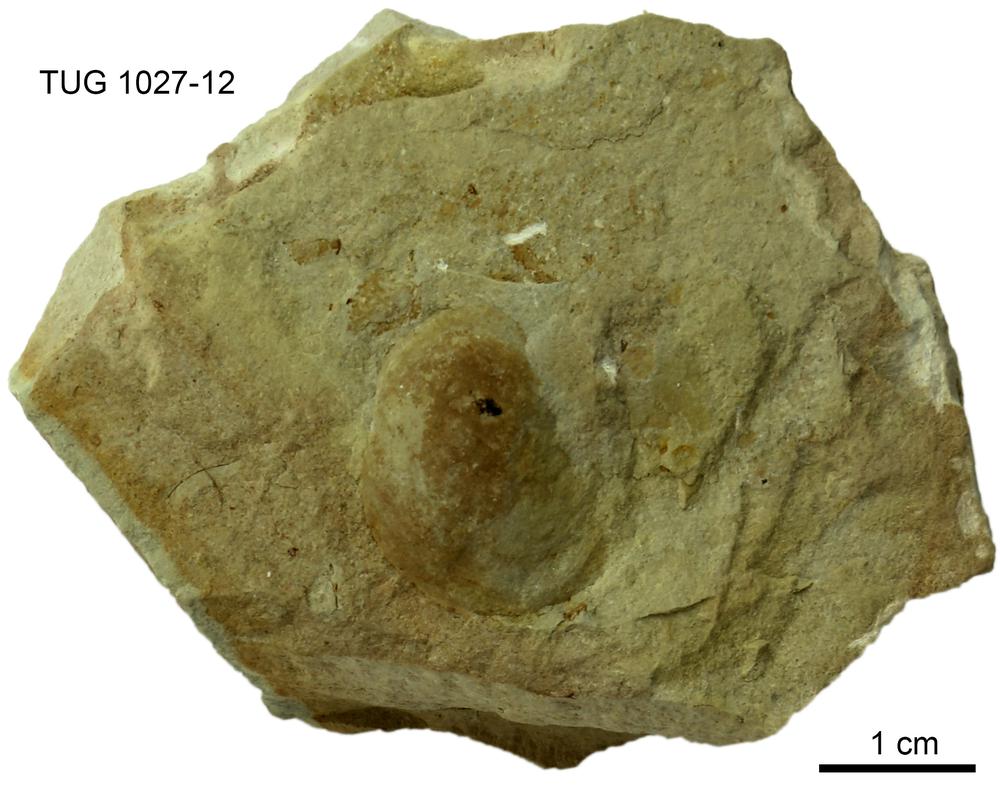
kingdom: Animalia
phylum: Arthropoda
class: Ostracoda
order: Leperditicopida
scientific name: Leperditicopida
